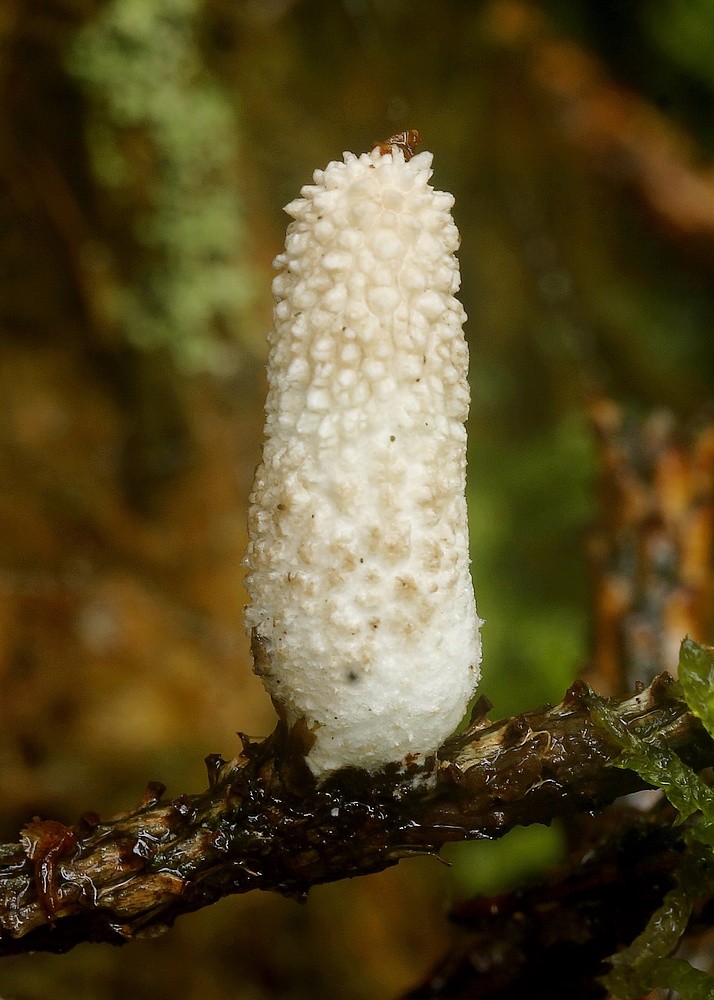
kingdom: Fungi
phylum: Basidiomycota
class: Agaricomycetes
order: Agaricales
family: Agaricaceae
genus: Lycoperdon
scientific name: Lycoperdon
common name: støvbold
